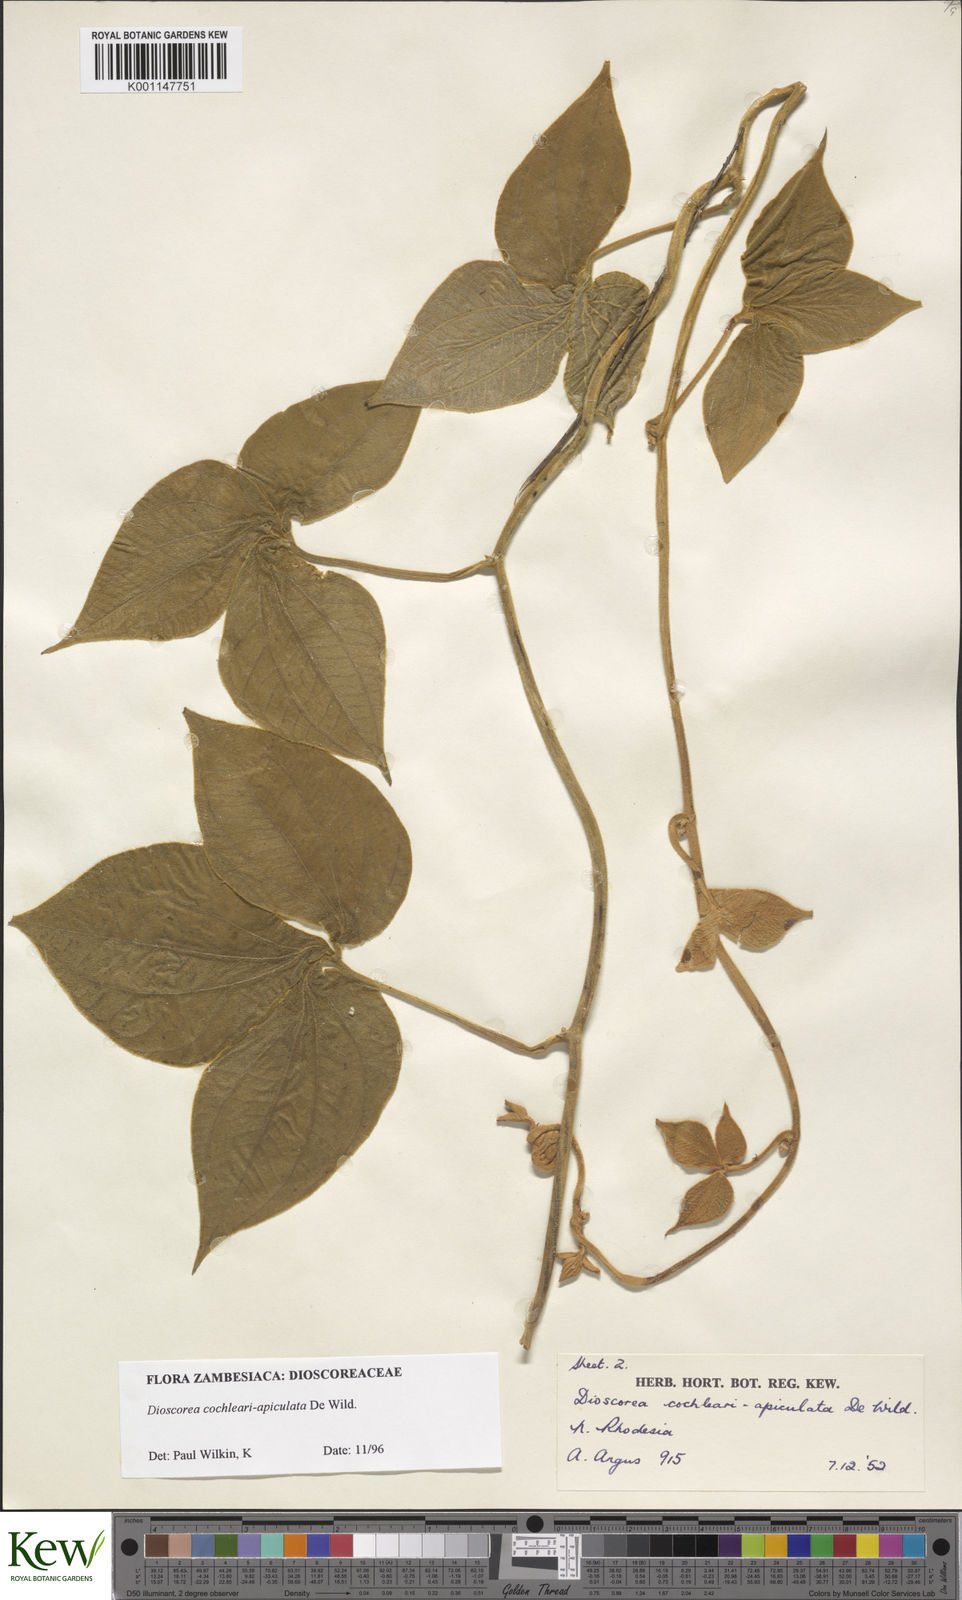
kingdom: Plantae
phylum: Tracheophyta
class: Liliopsida
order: Dioscoreales
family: Dioscoreaceae
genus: Dioscorea
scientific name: Dioscorea cochleariapiculata
